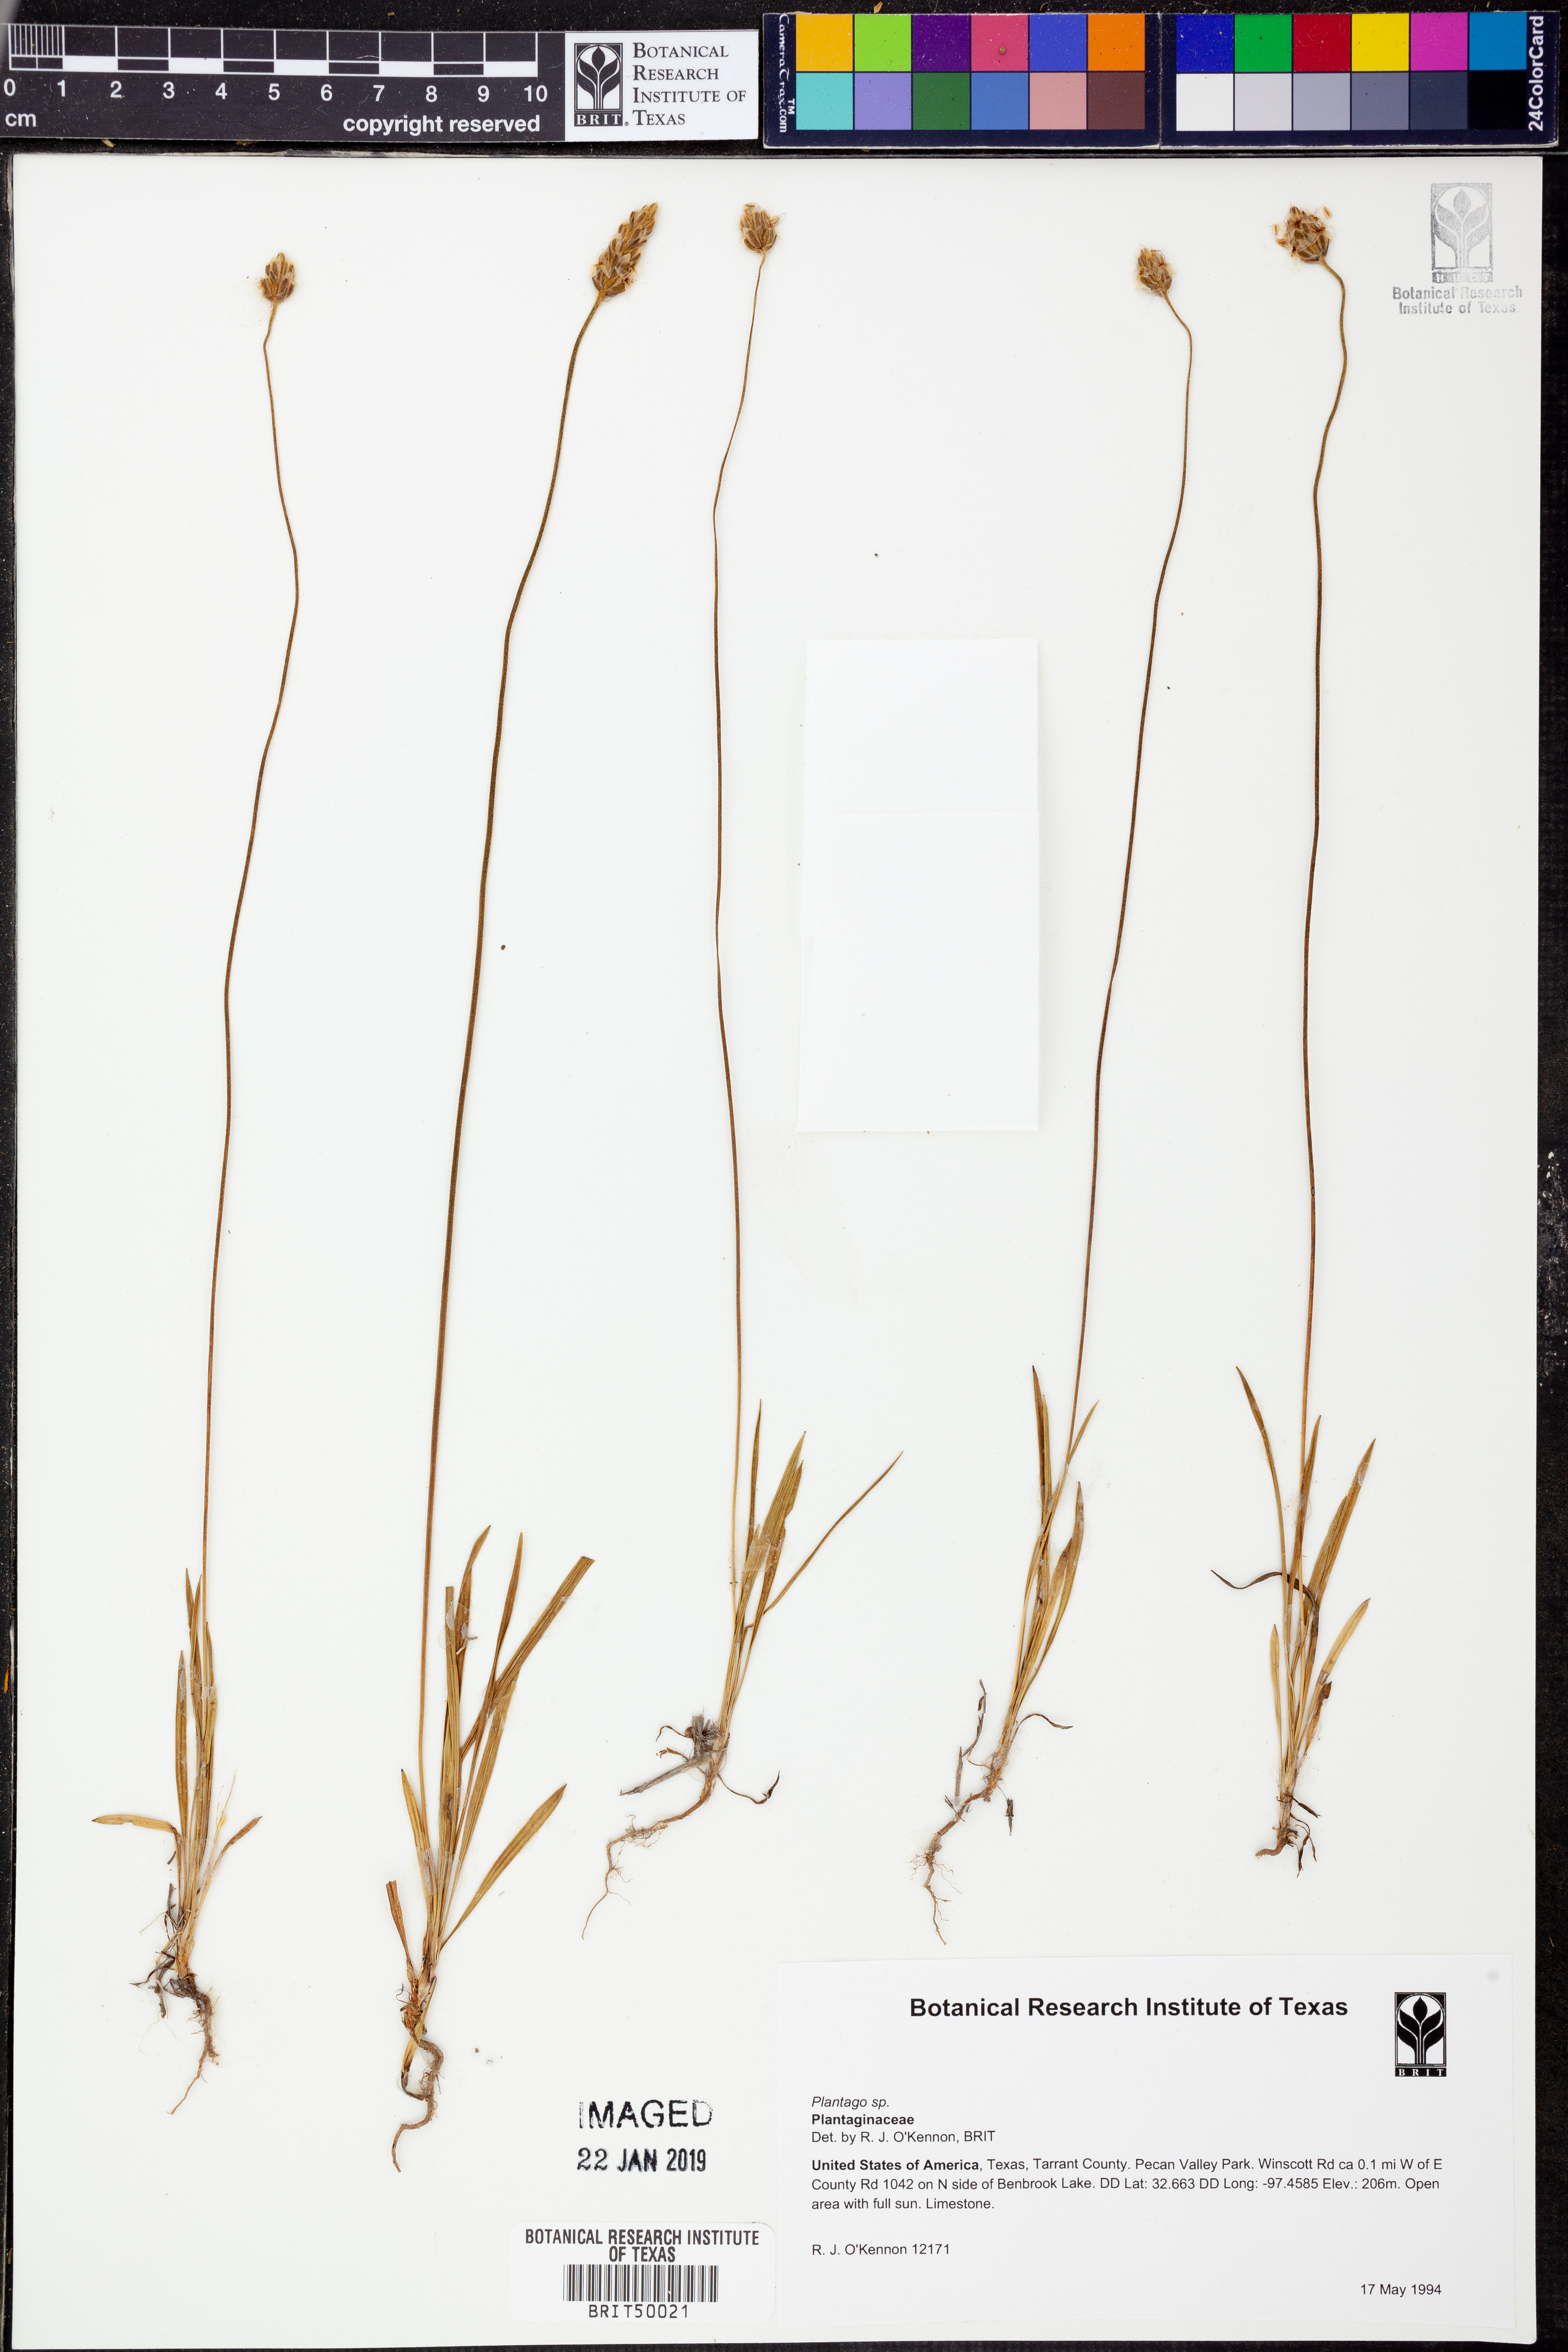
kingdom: Plantae
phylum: Tracheophyta
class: Magnoliopsida
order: Lamiales
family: Plantaginaceae
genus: Plantago
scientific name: Plantago
